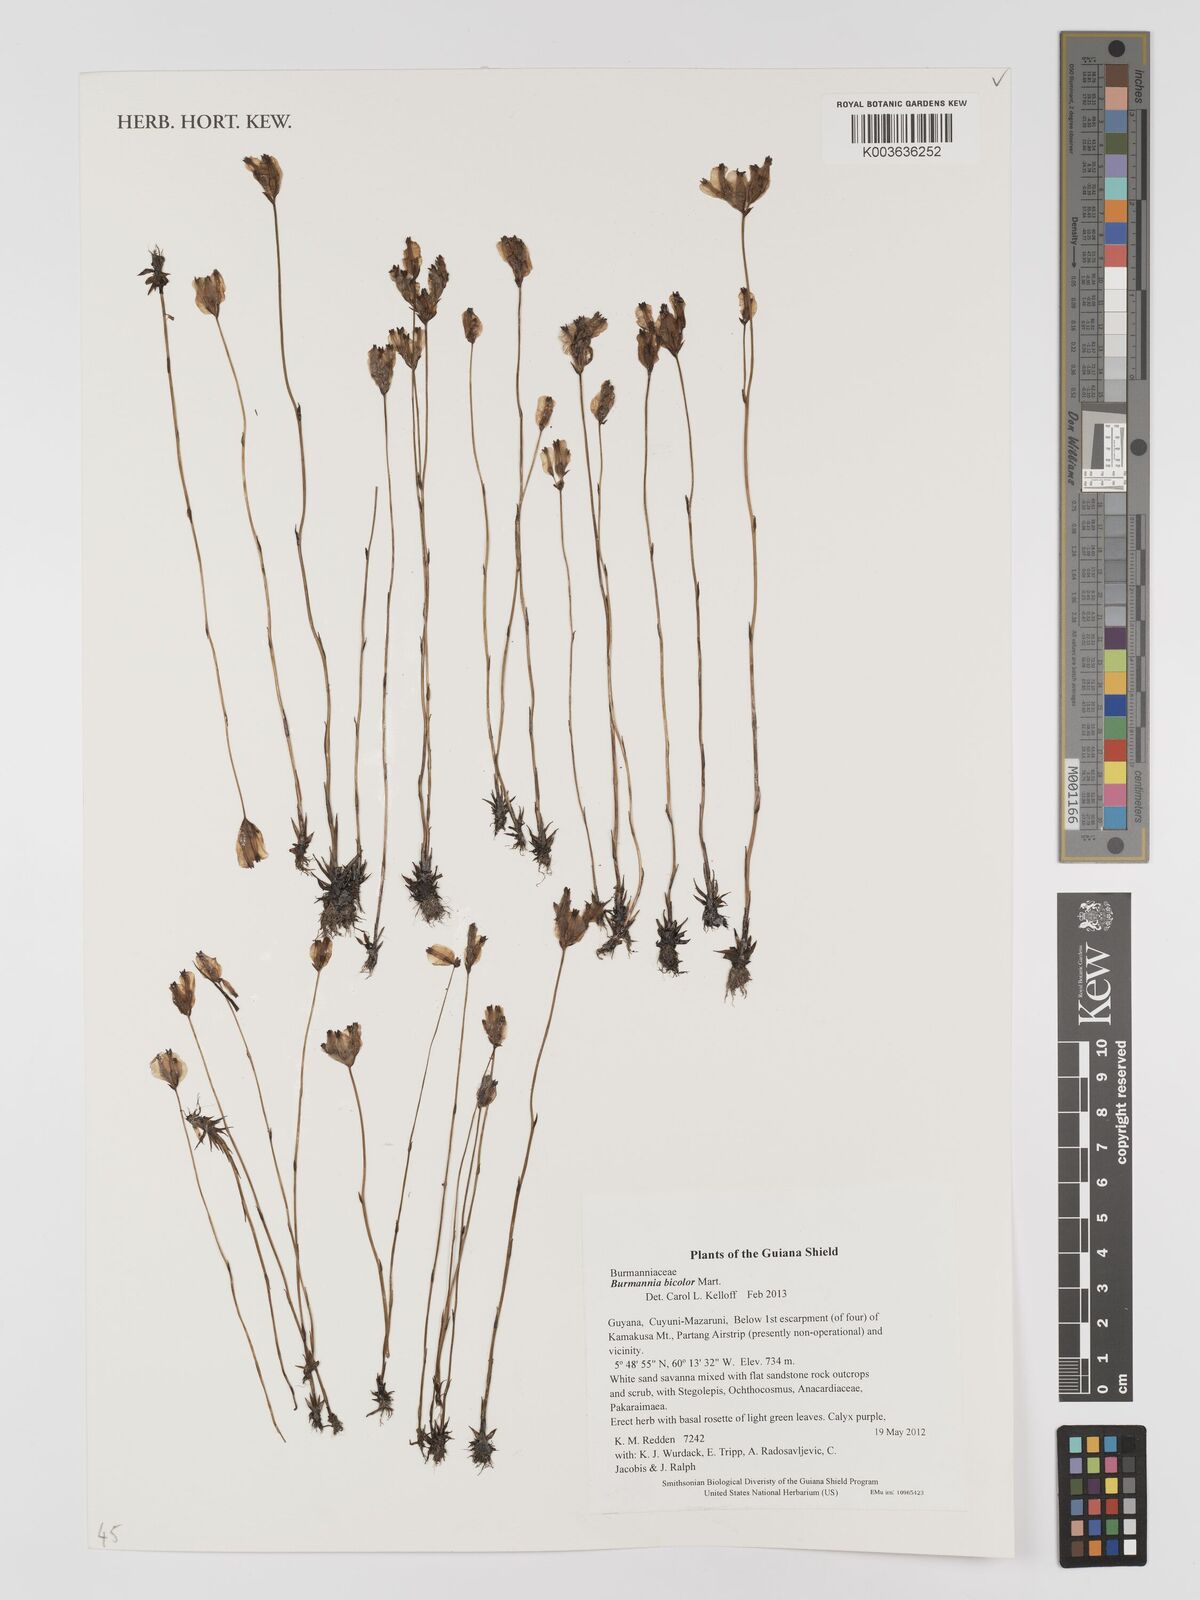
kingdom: Plantae
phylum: Tracheophyta
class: Liliopsida
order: Dioscoreales
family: Burmanniaceae
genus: Burmannia
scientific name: Burmannia bicolor
